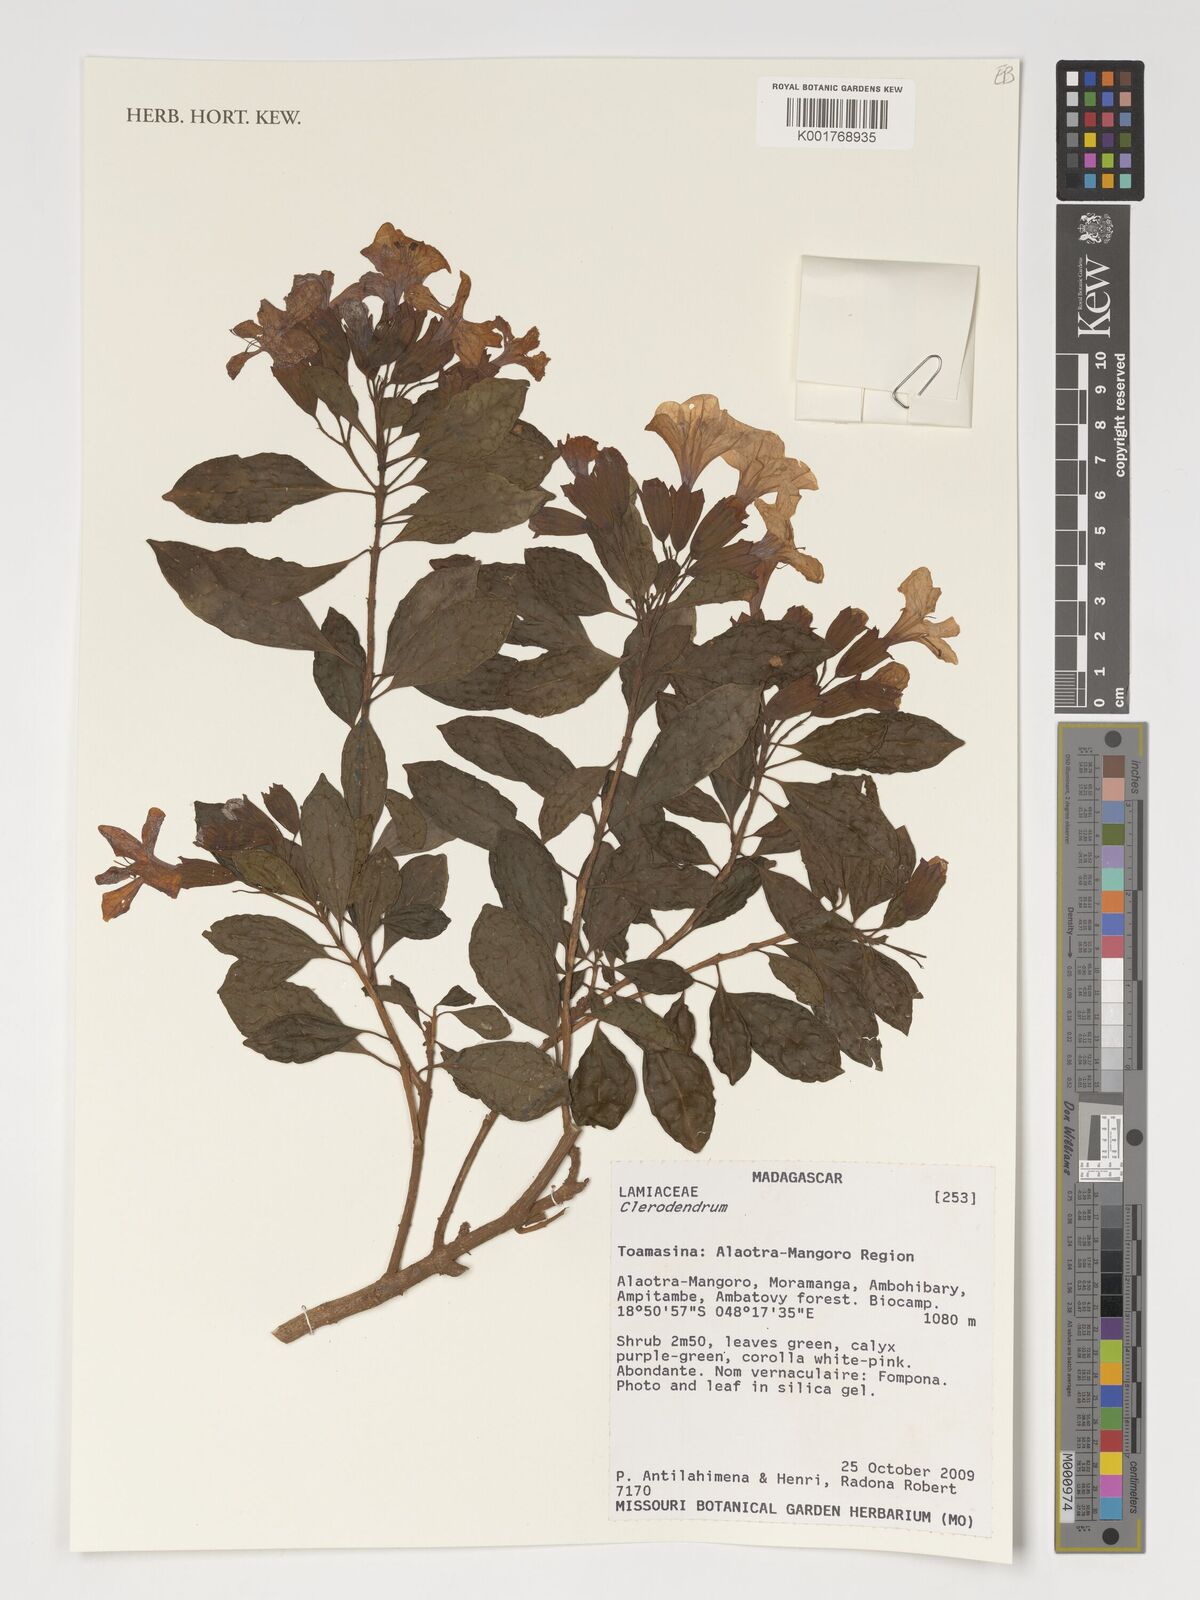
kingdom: Plantae
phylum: Tracheophyta
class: Magnoliopsida
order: Lamiales
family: Lamiaceae
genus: Clerodendrum
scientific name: Clerodendrum
